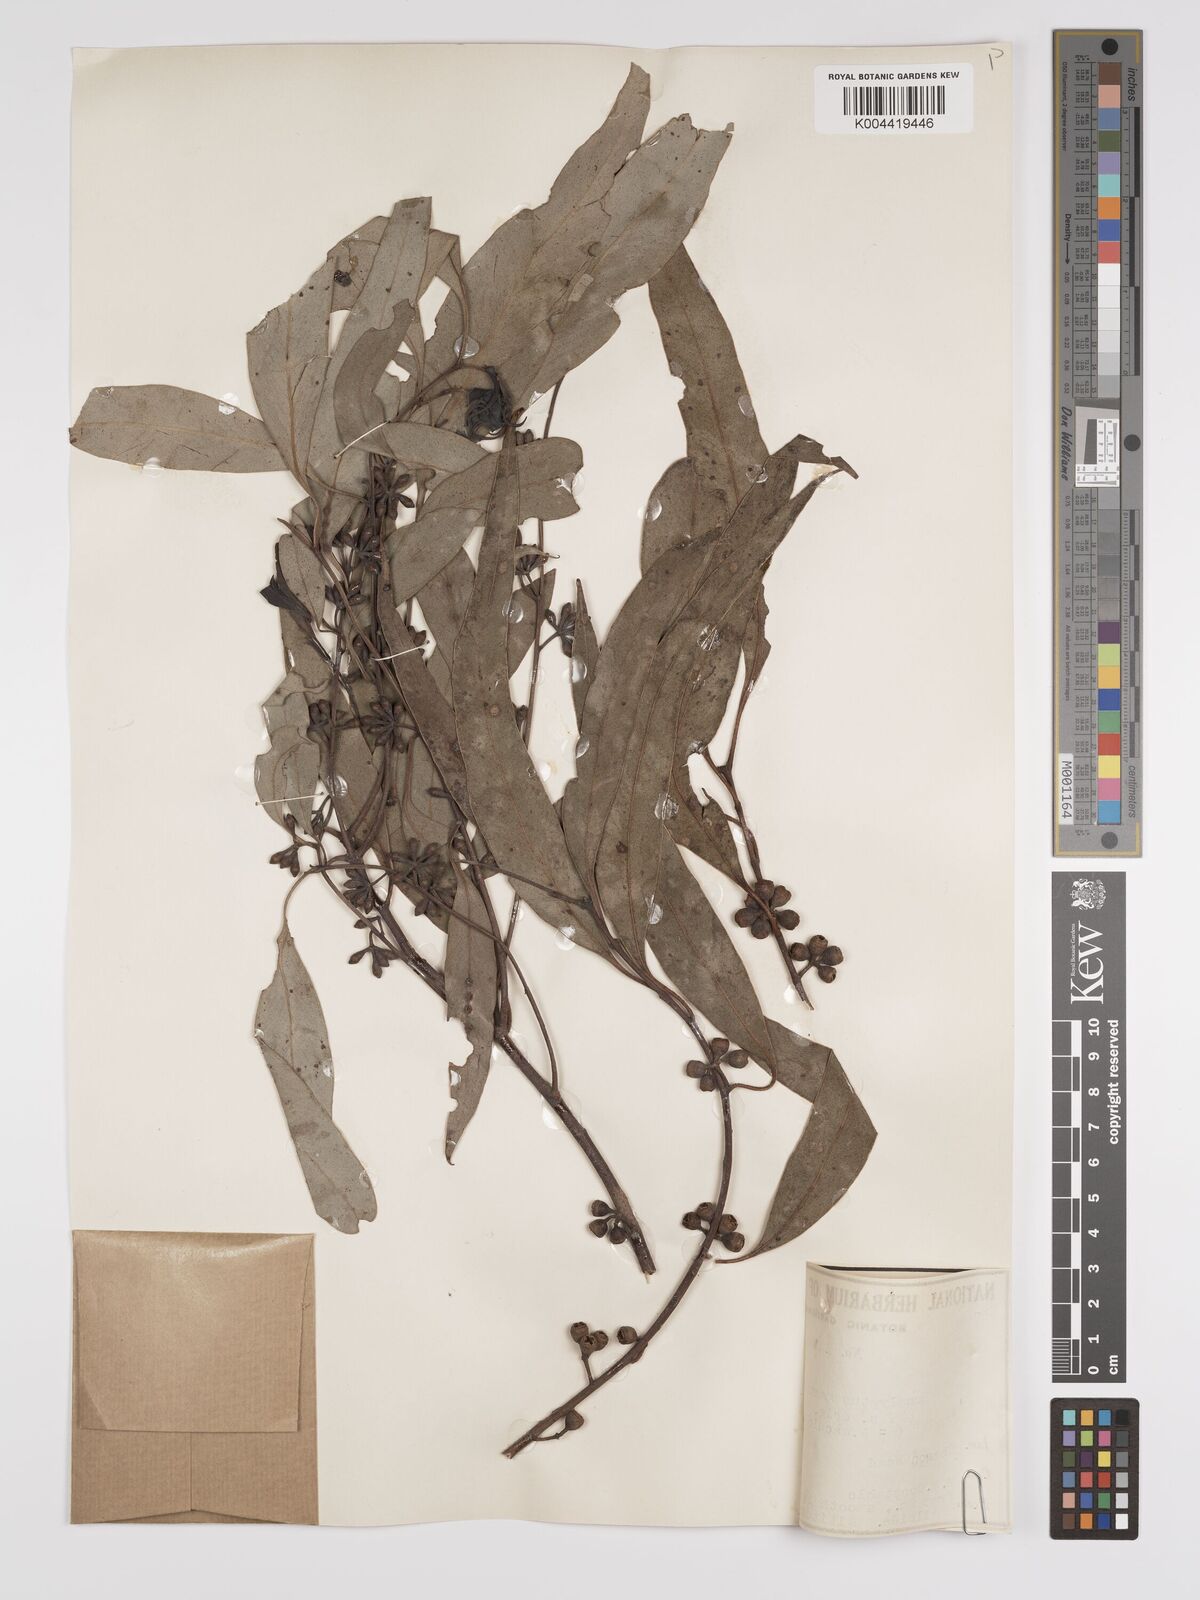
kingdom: Plantae
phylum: Tracheophyta
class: Magnoliopsida
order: Myrtales
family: Myrtaceae
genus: Eucalyptus
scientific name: Eucalyptus mannifera
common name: Manna gum
